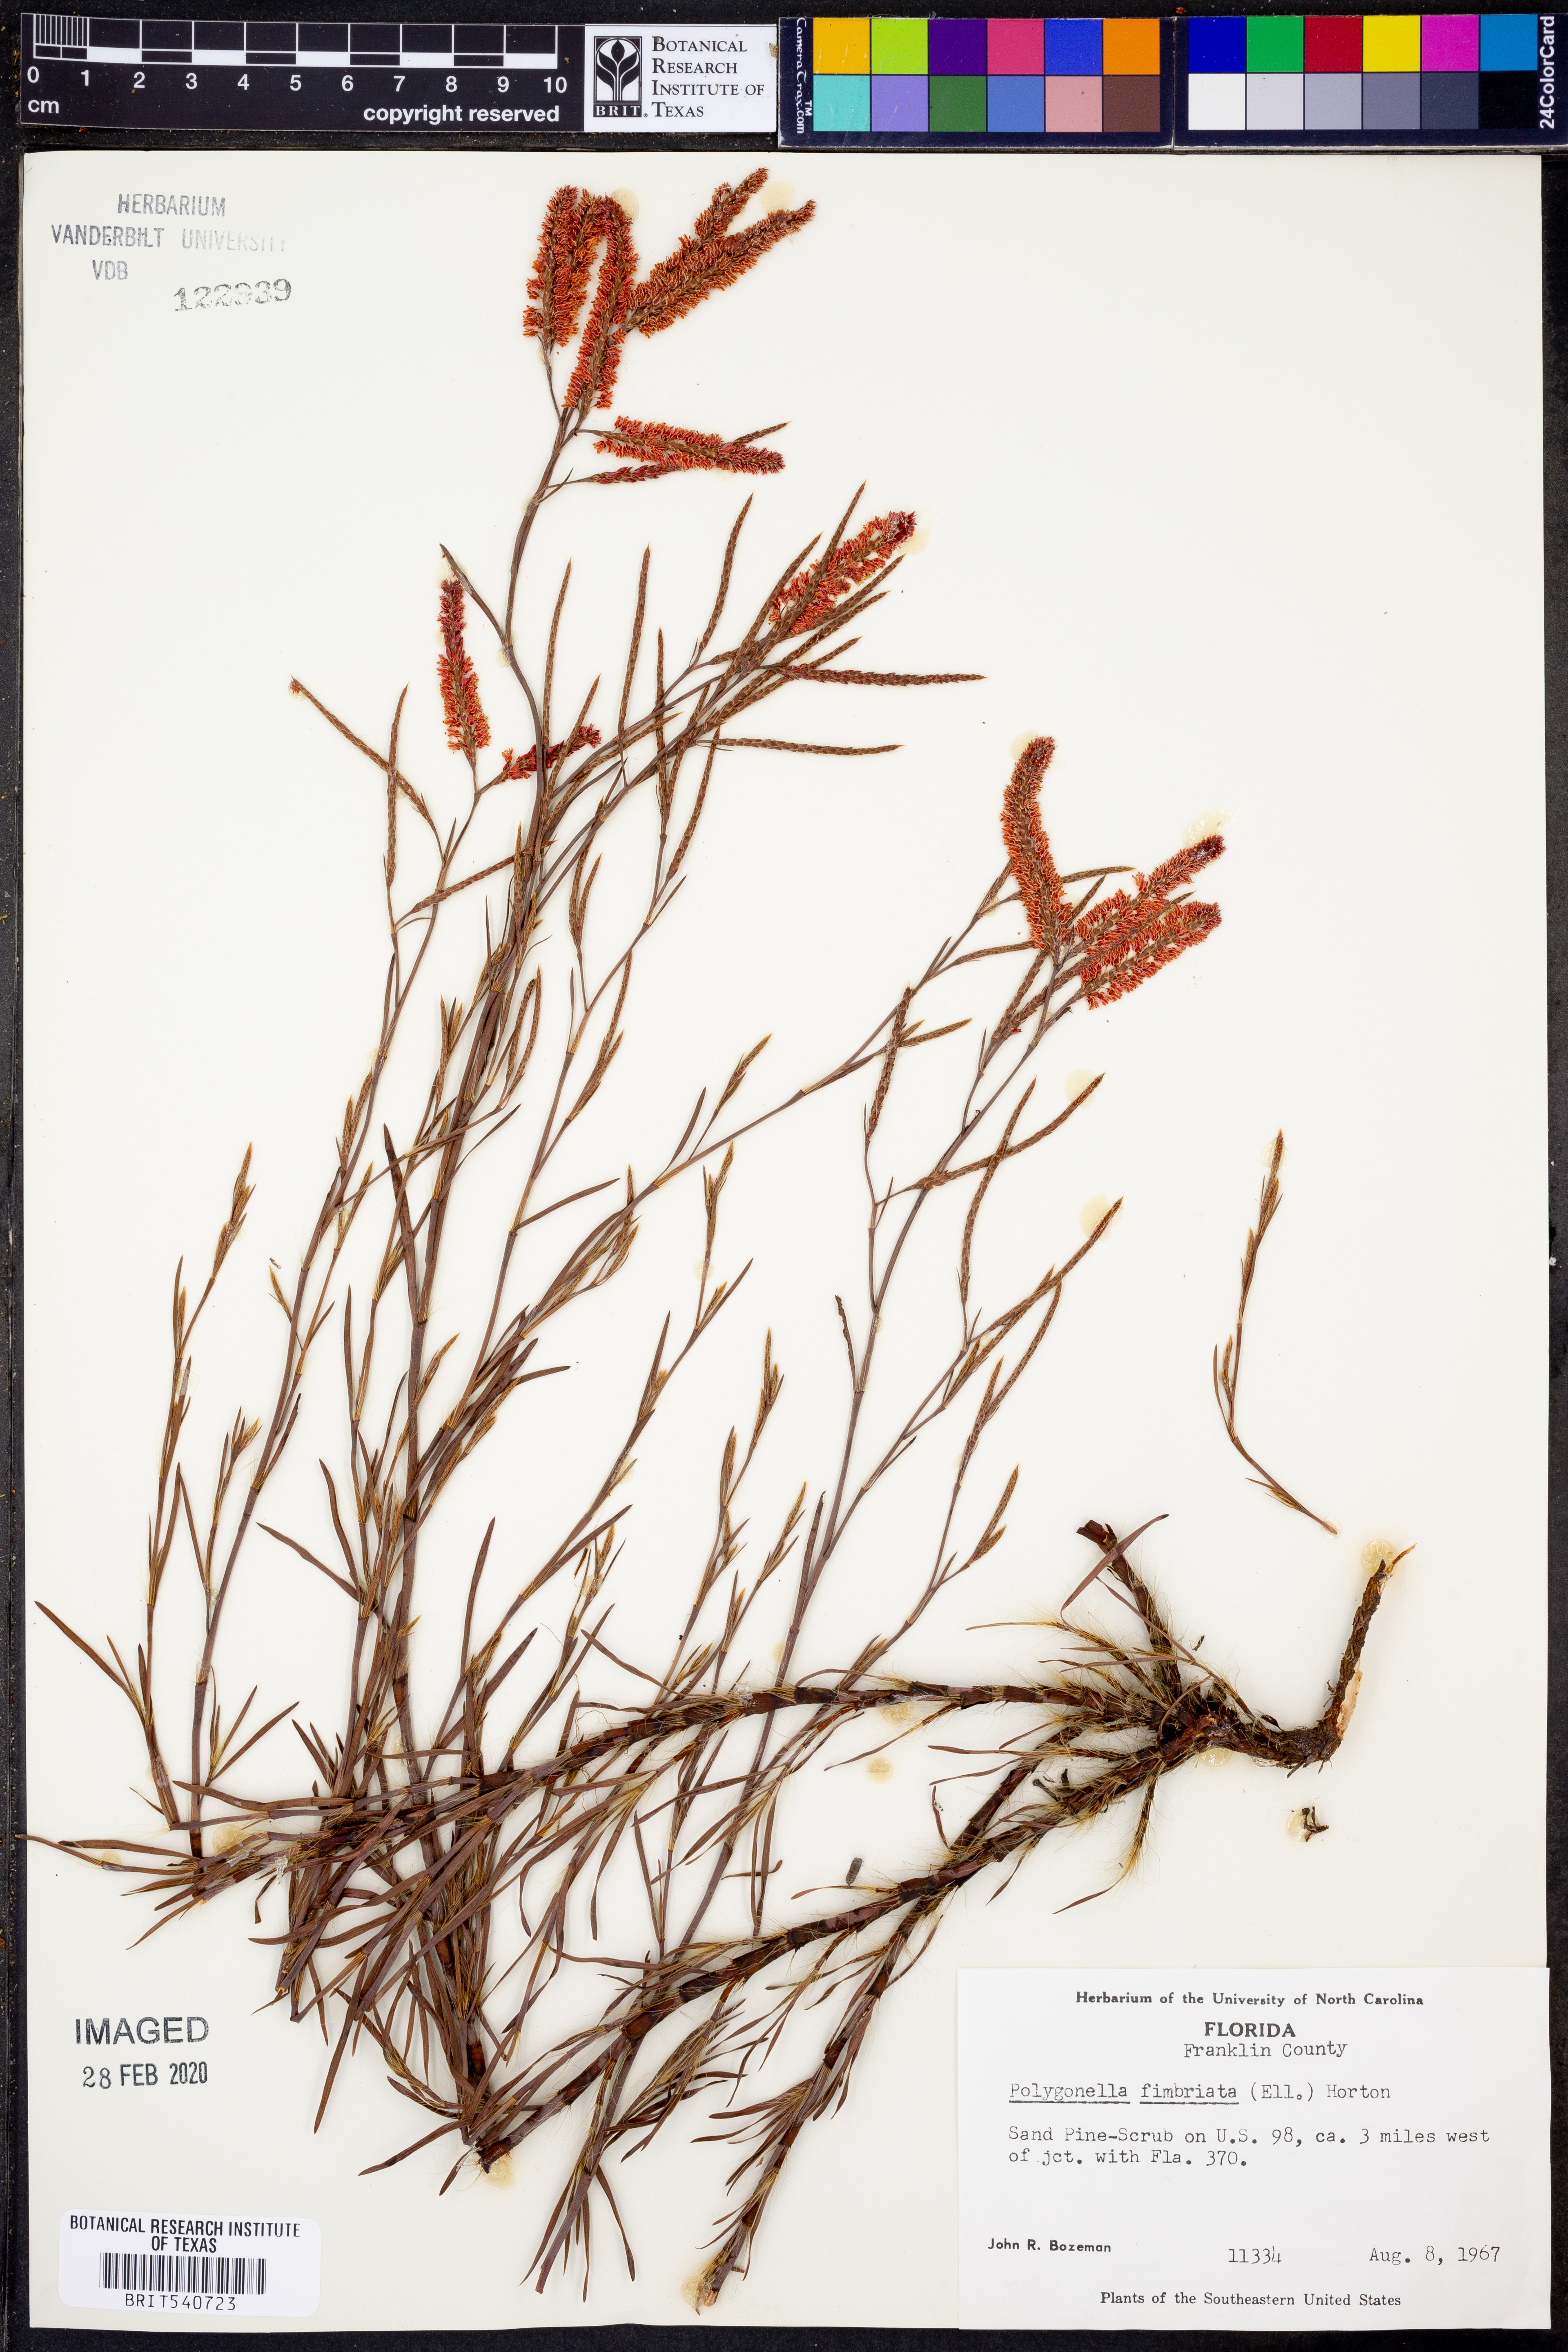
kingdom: Plantae
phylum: Tracheophyta
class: Magnoliopsida
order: Caryophyllales
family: Polygonaceae
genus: Polygonella
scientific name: Polygonella fimbriata
